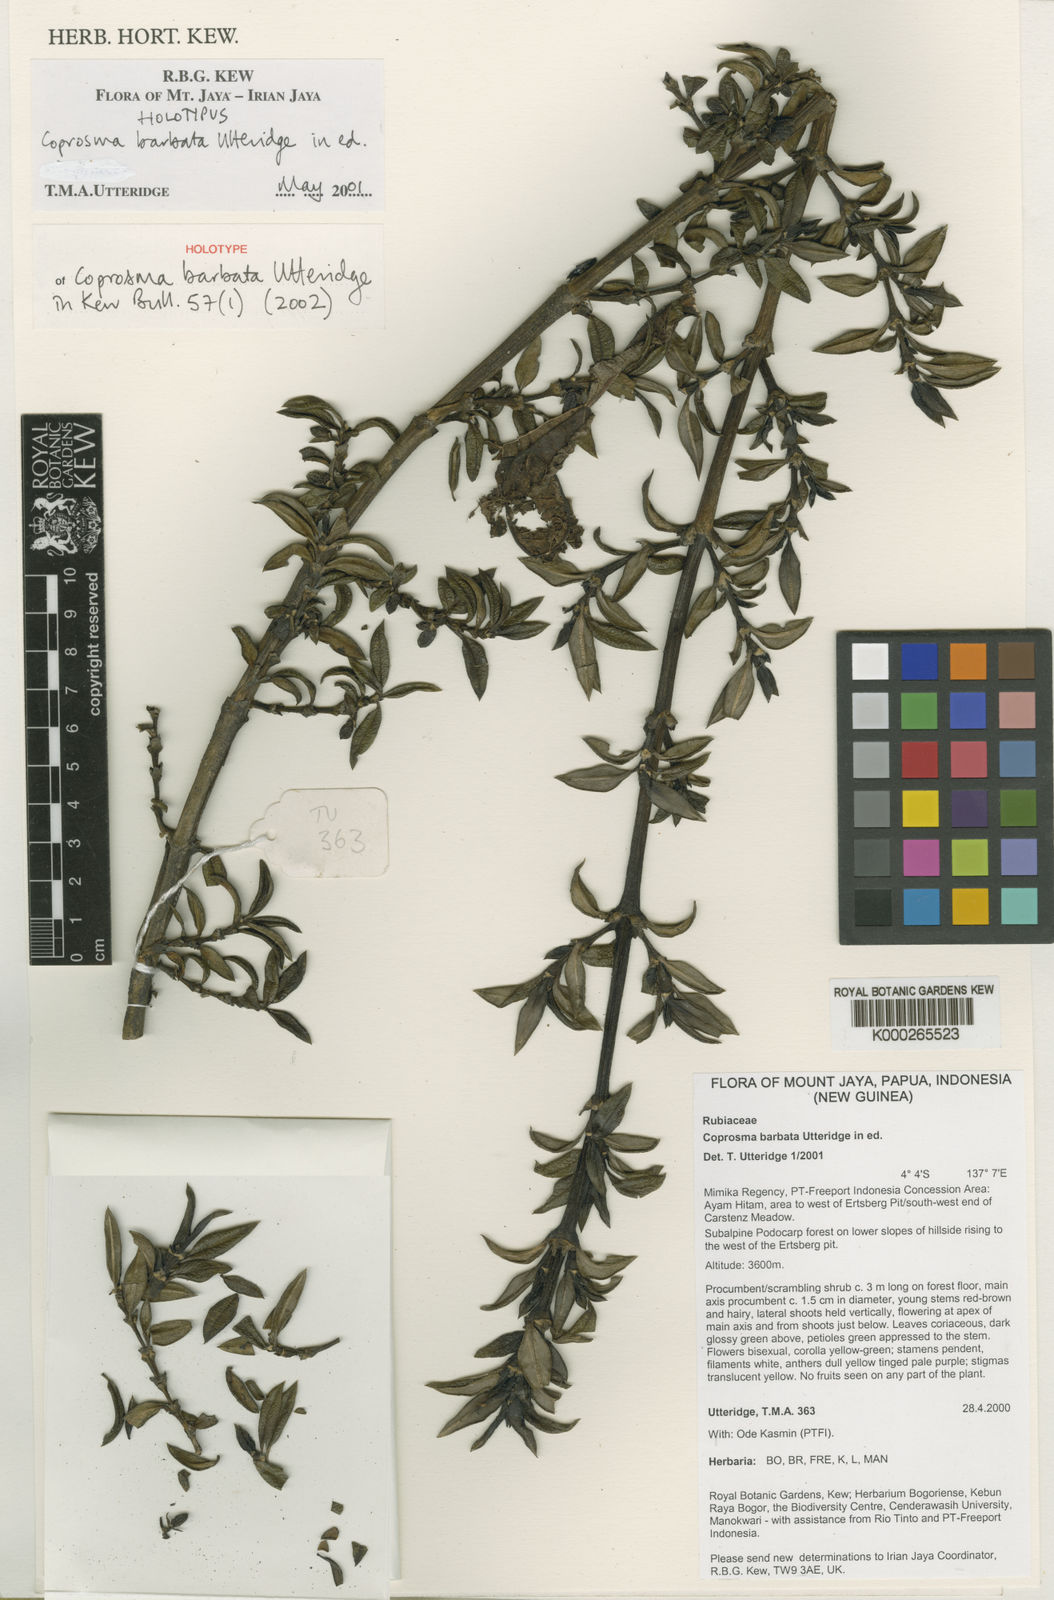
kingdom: Plantae
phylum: Tracheophyta
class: Magnoliopsida
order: Gentianales
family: Rubiaceae
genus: Coprosma
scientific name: Coprosma barbata
